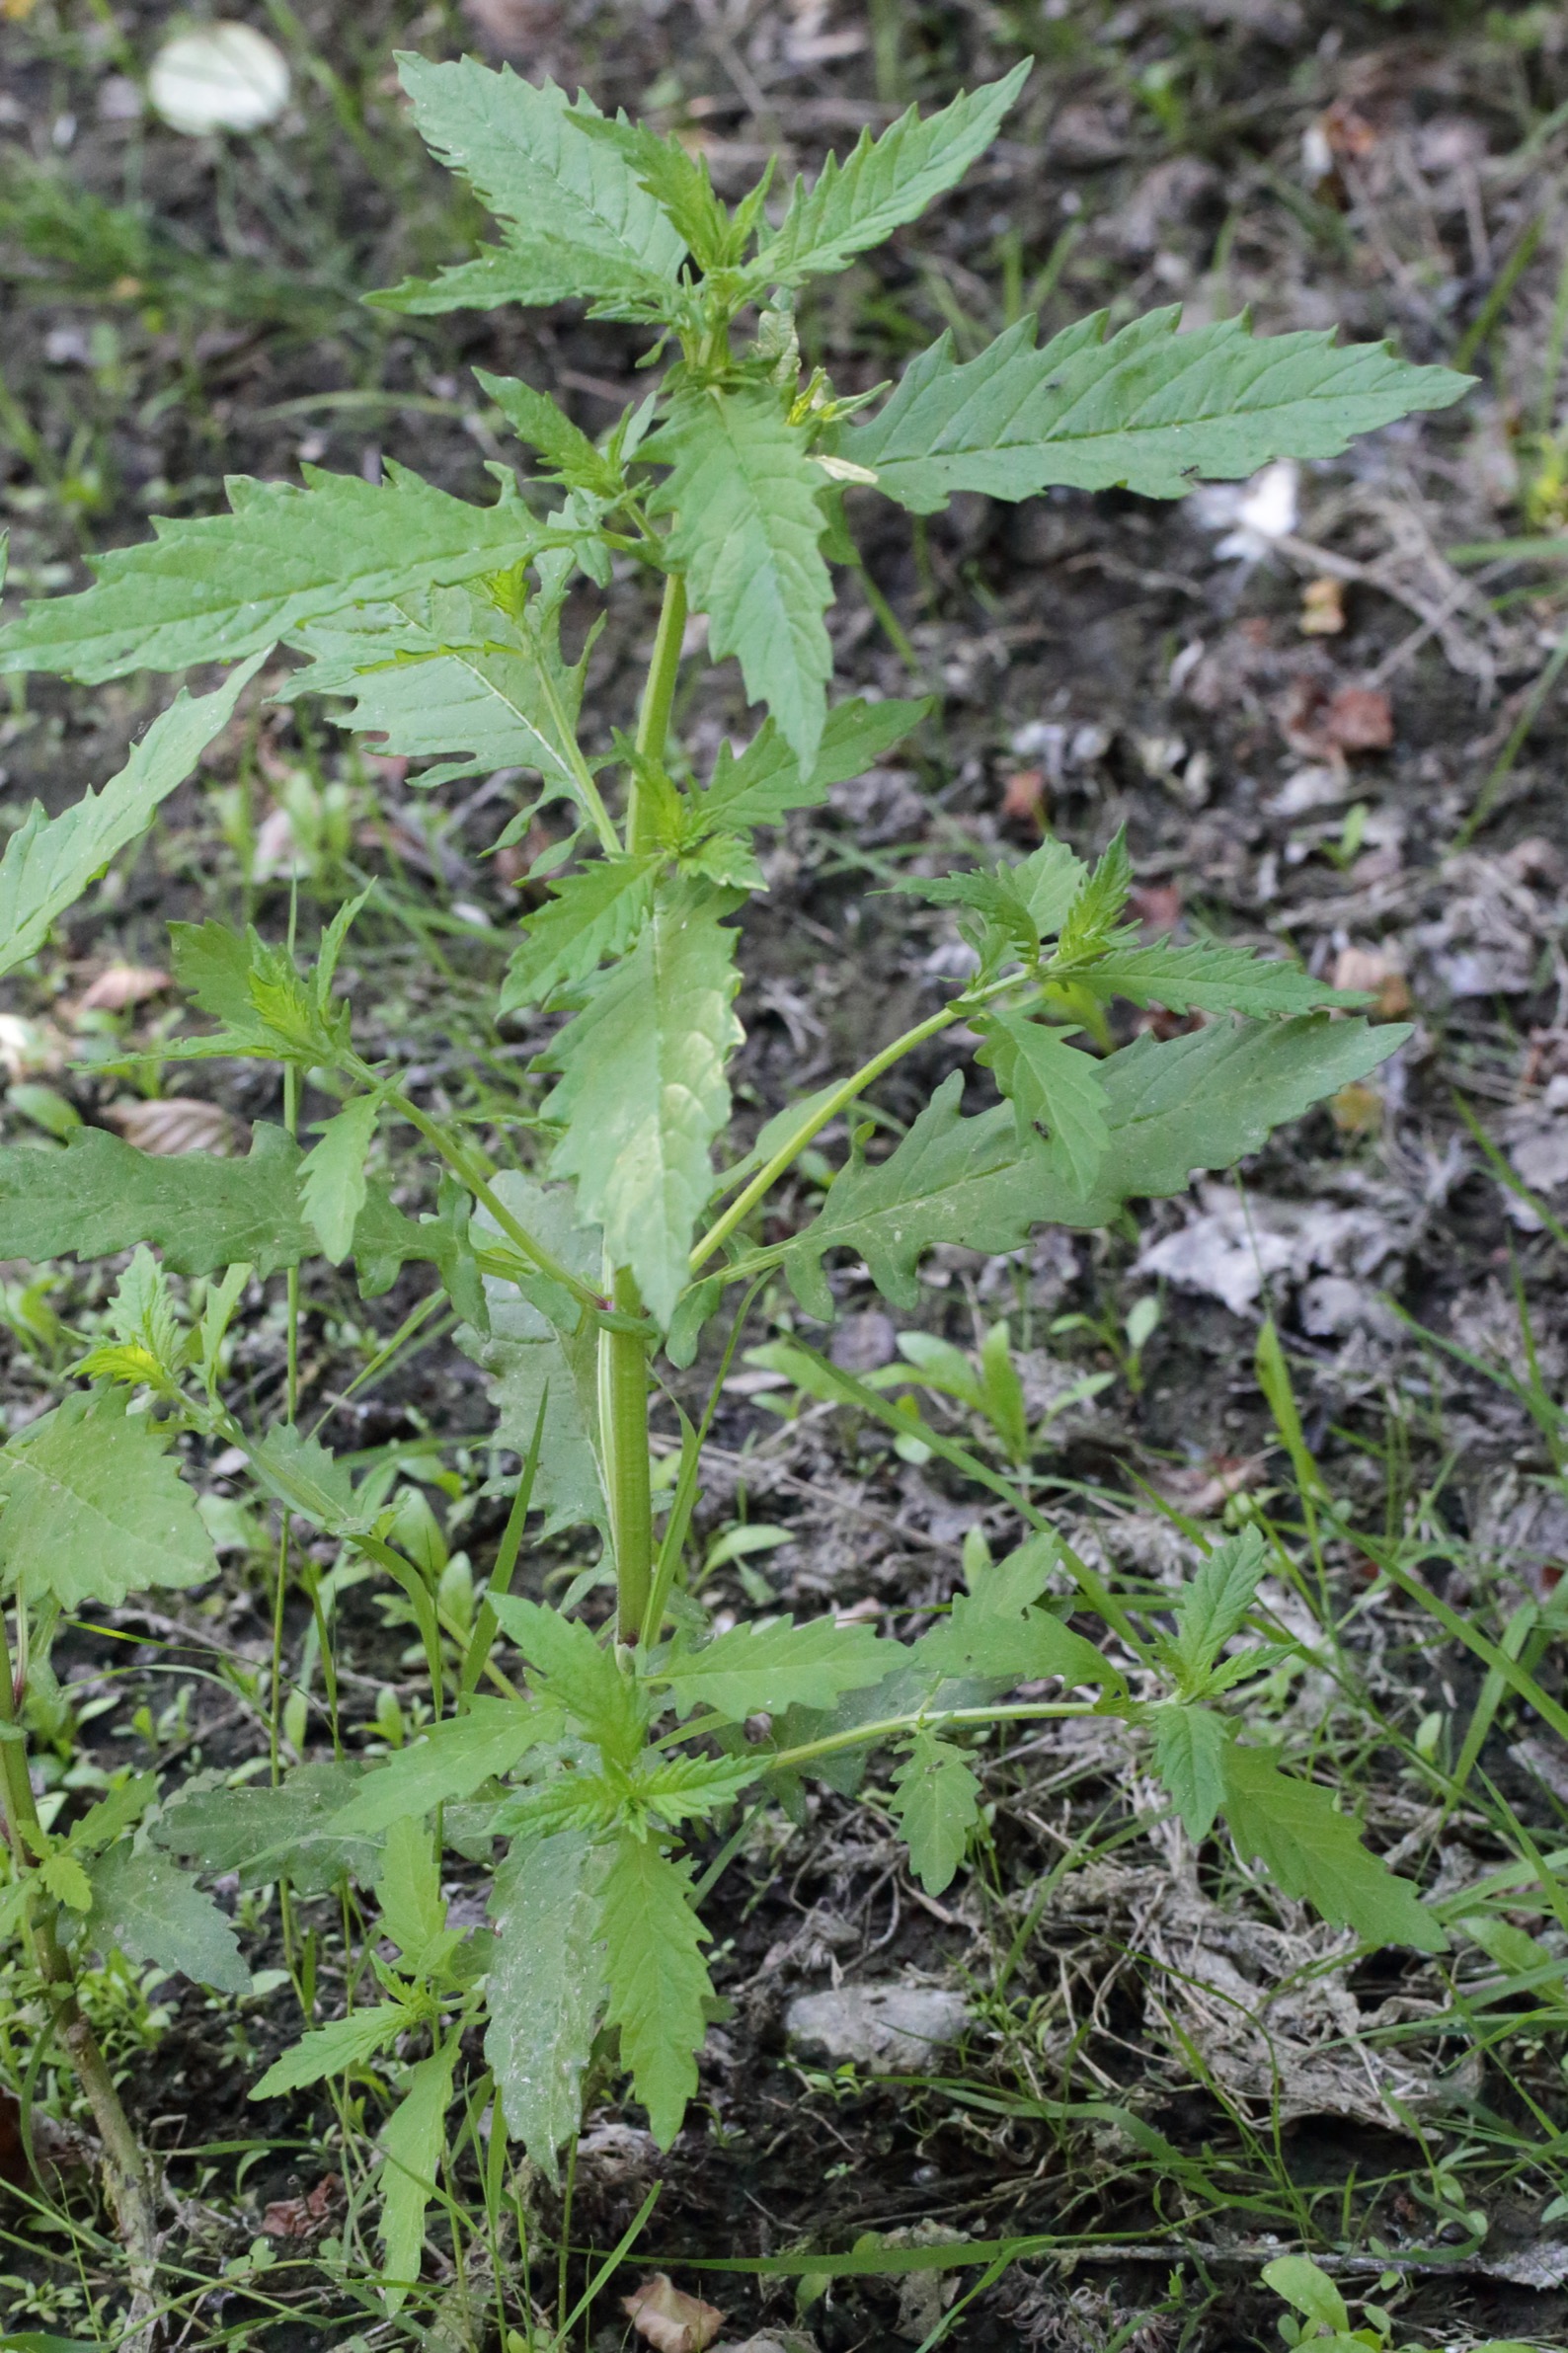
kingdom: Plantae
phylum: Tracheophyta
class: Magnoliopsida
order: Lamiales
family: Lamiaceae
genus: Lycopus
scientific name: Lycopus europaeus
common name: Sværtevæld
